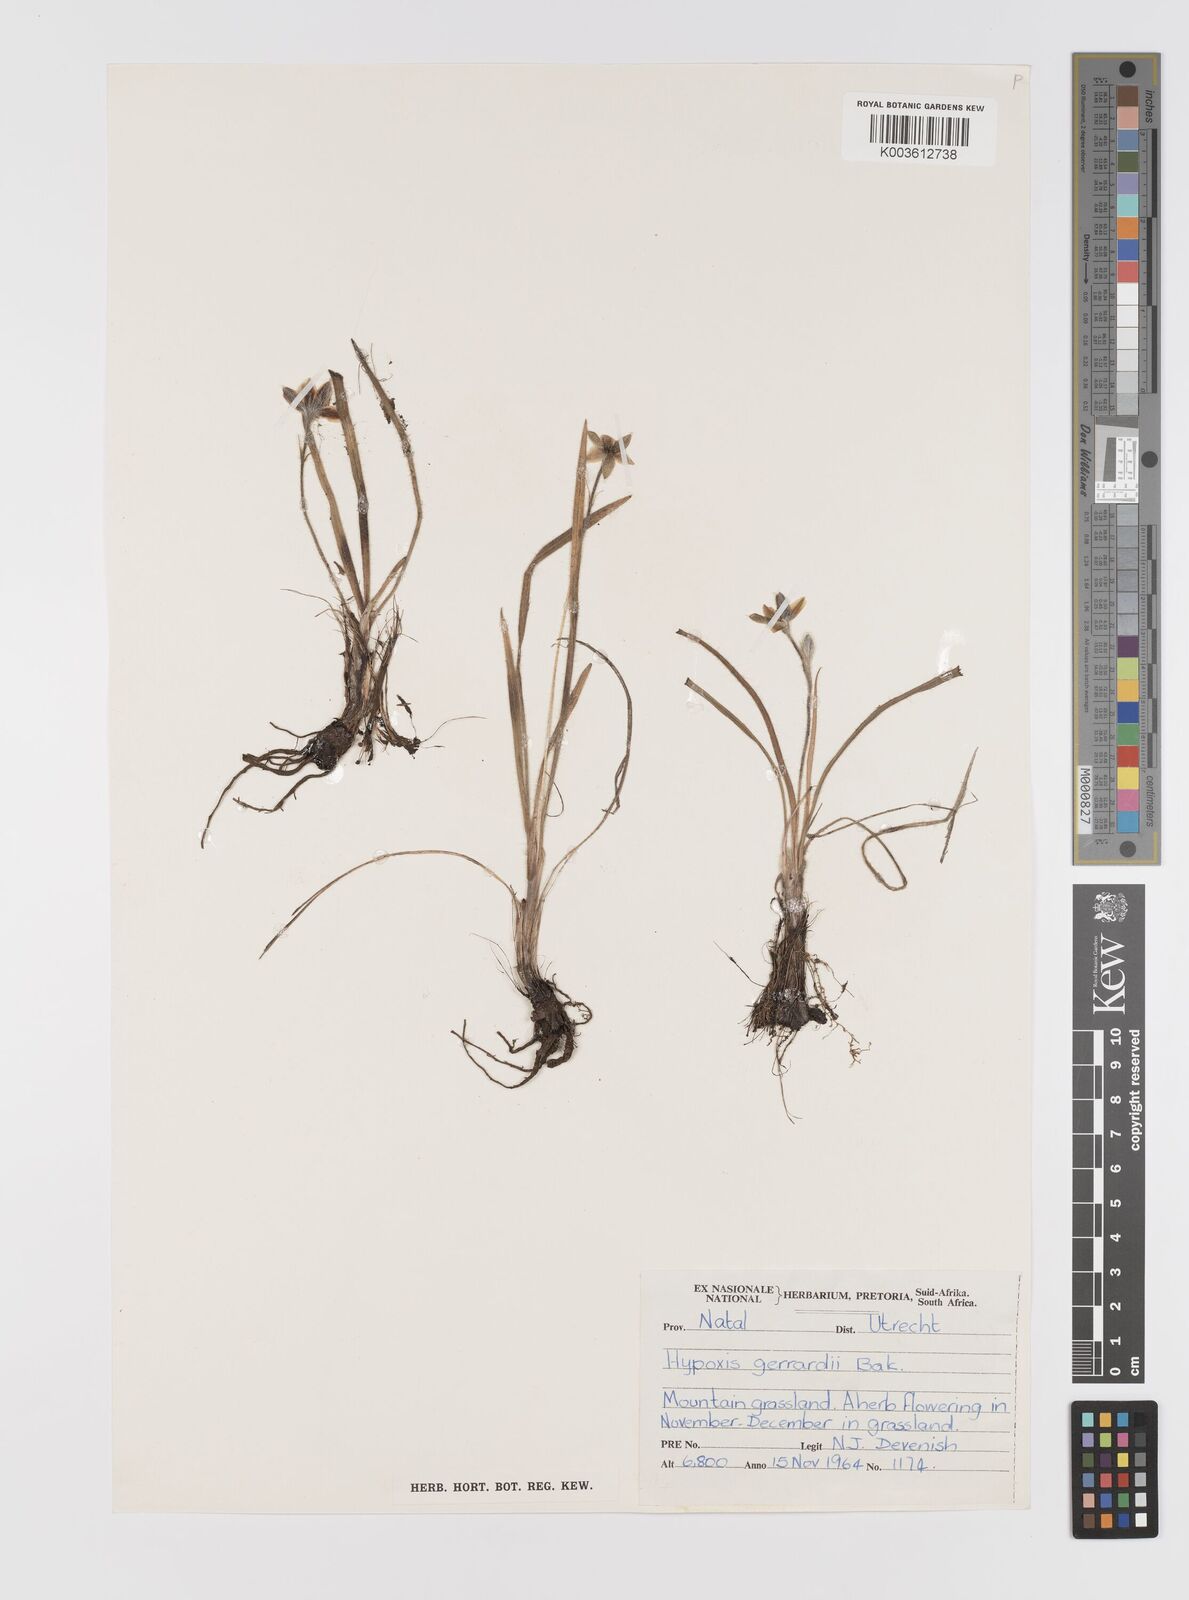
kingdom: Plantae
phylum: Tracheophyta
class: Liliopsida
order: Asparagales
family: Hypoxidaceae
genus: Hypoxis
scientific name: Hypoxis gerrardii
